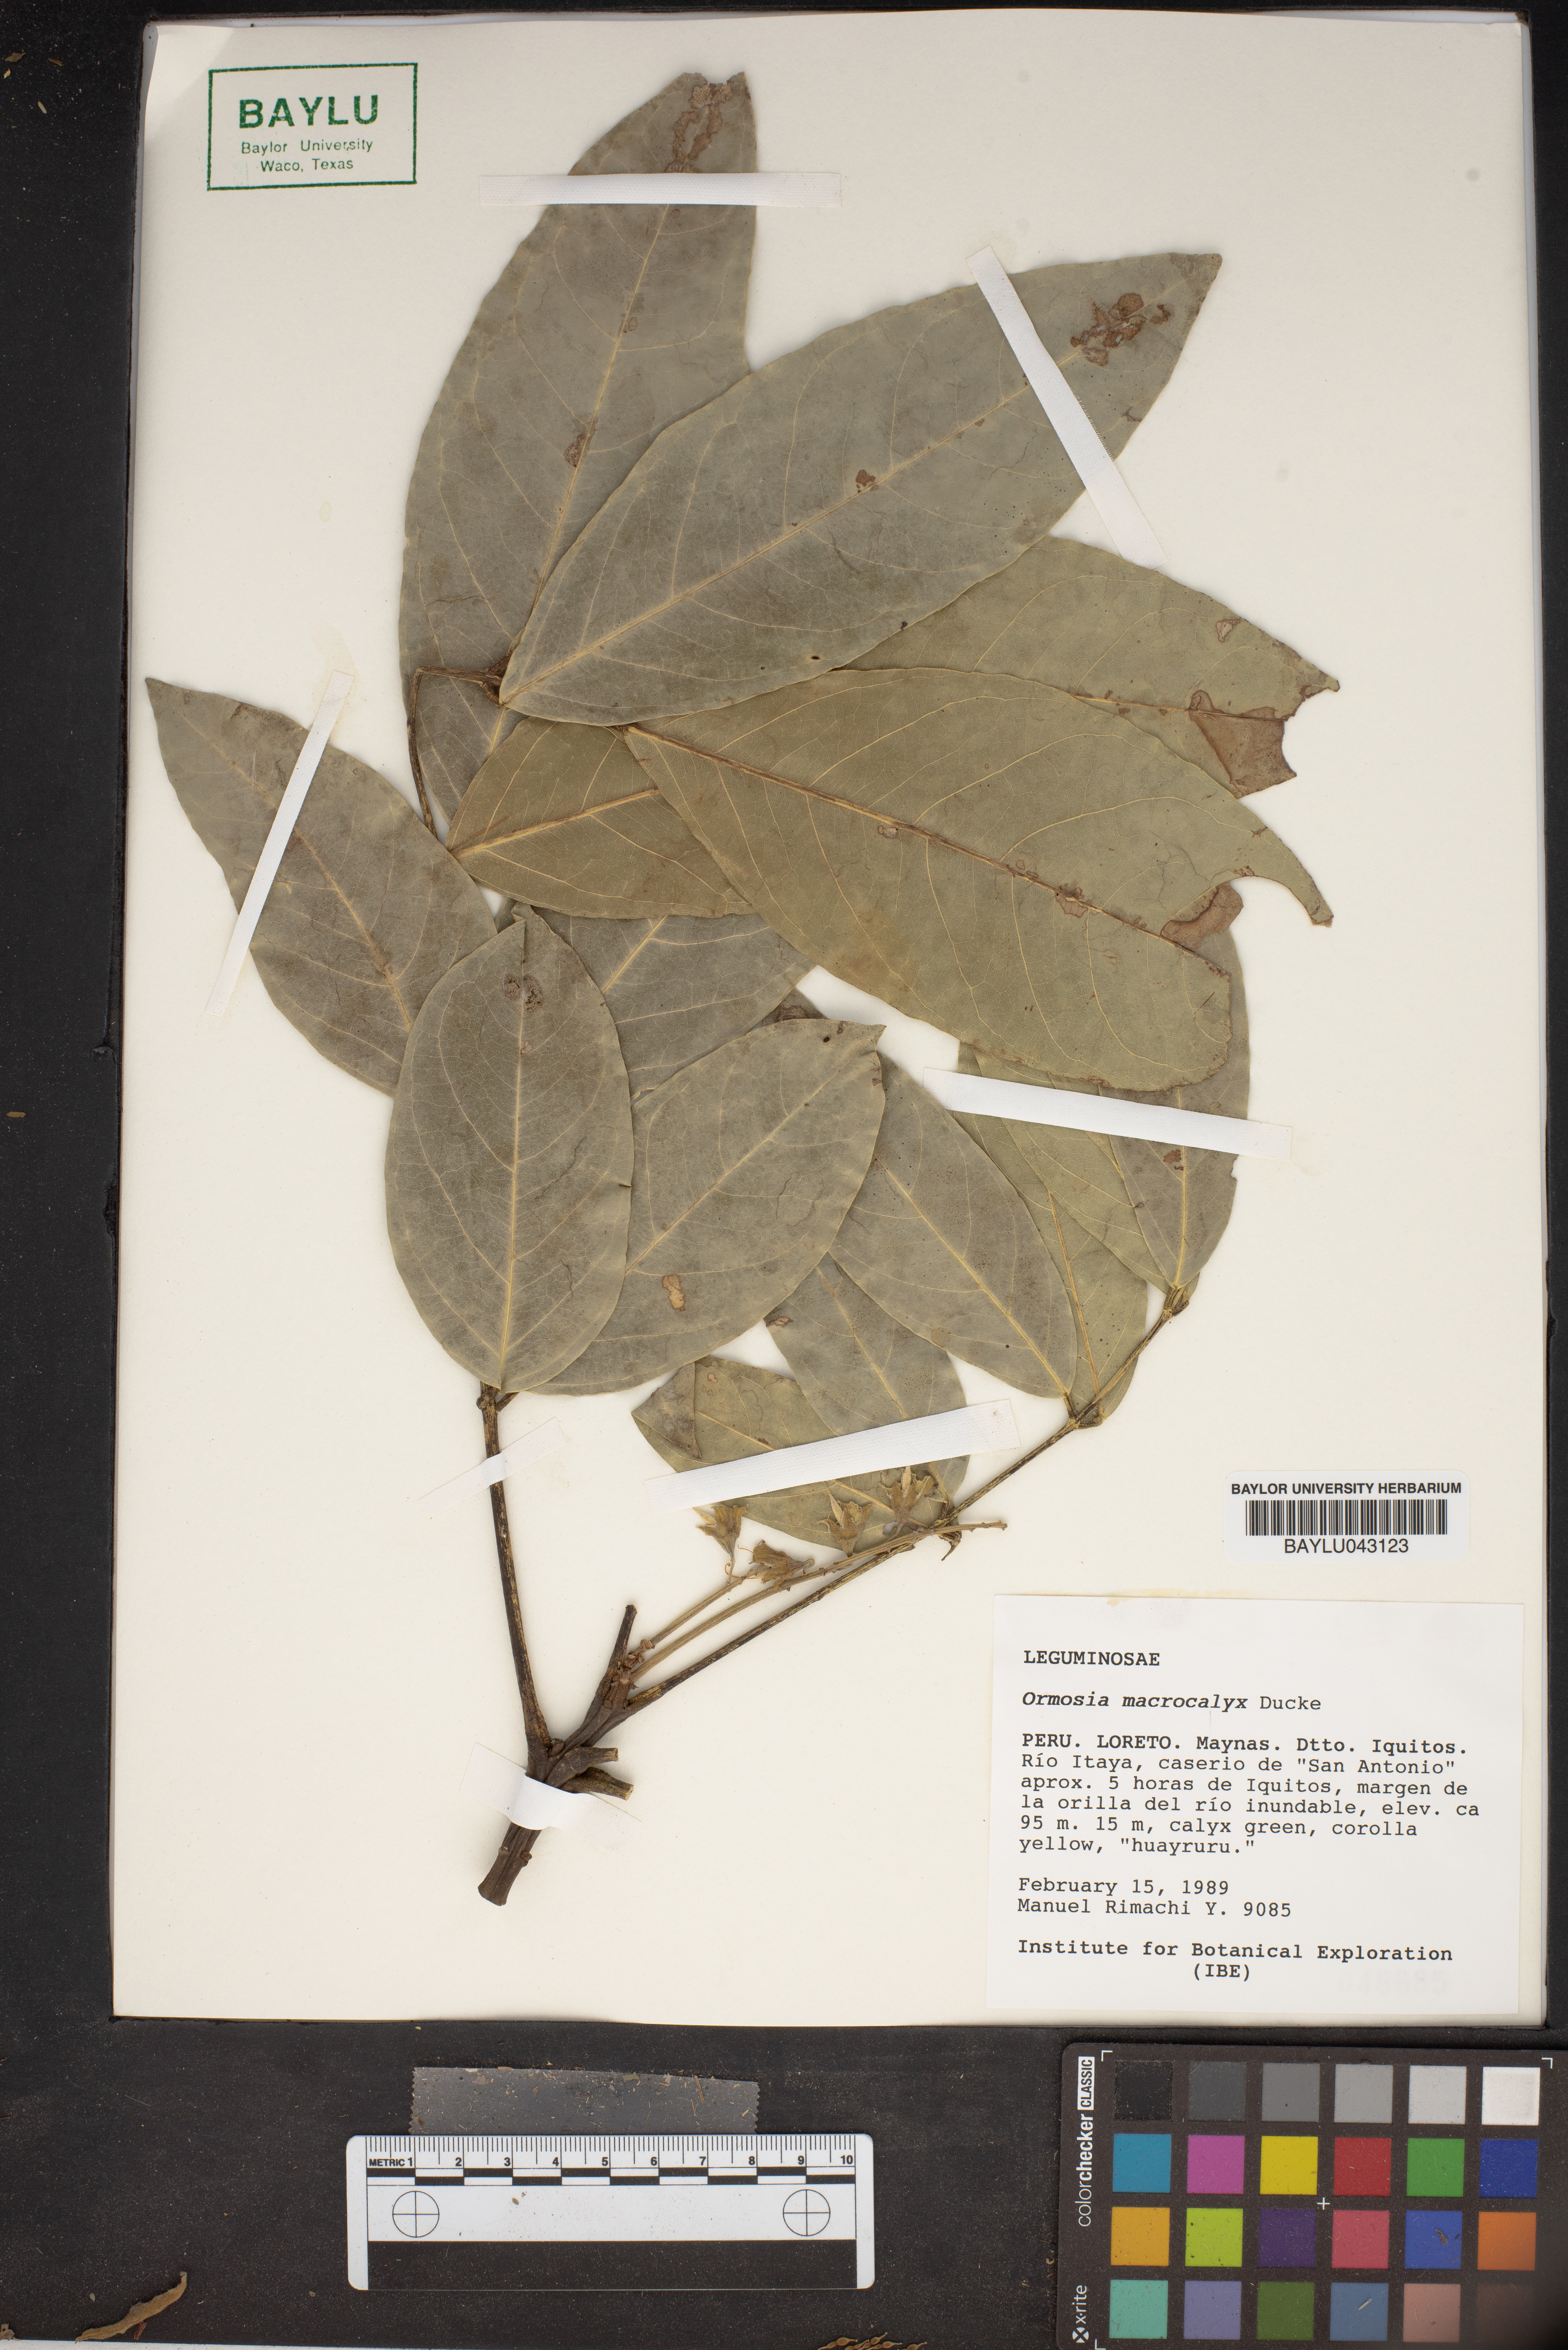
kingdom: Plantae
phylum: Tracheophyta
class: Magnoliopsida
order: Fabales
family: Fabaceae
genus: Ormosia
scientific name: Ormosia macrocalyx
